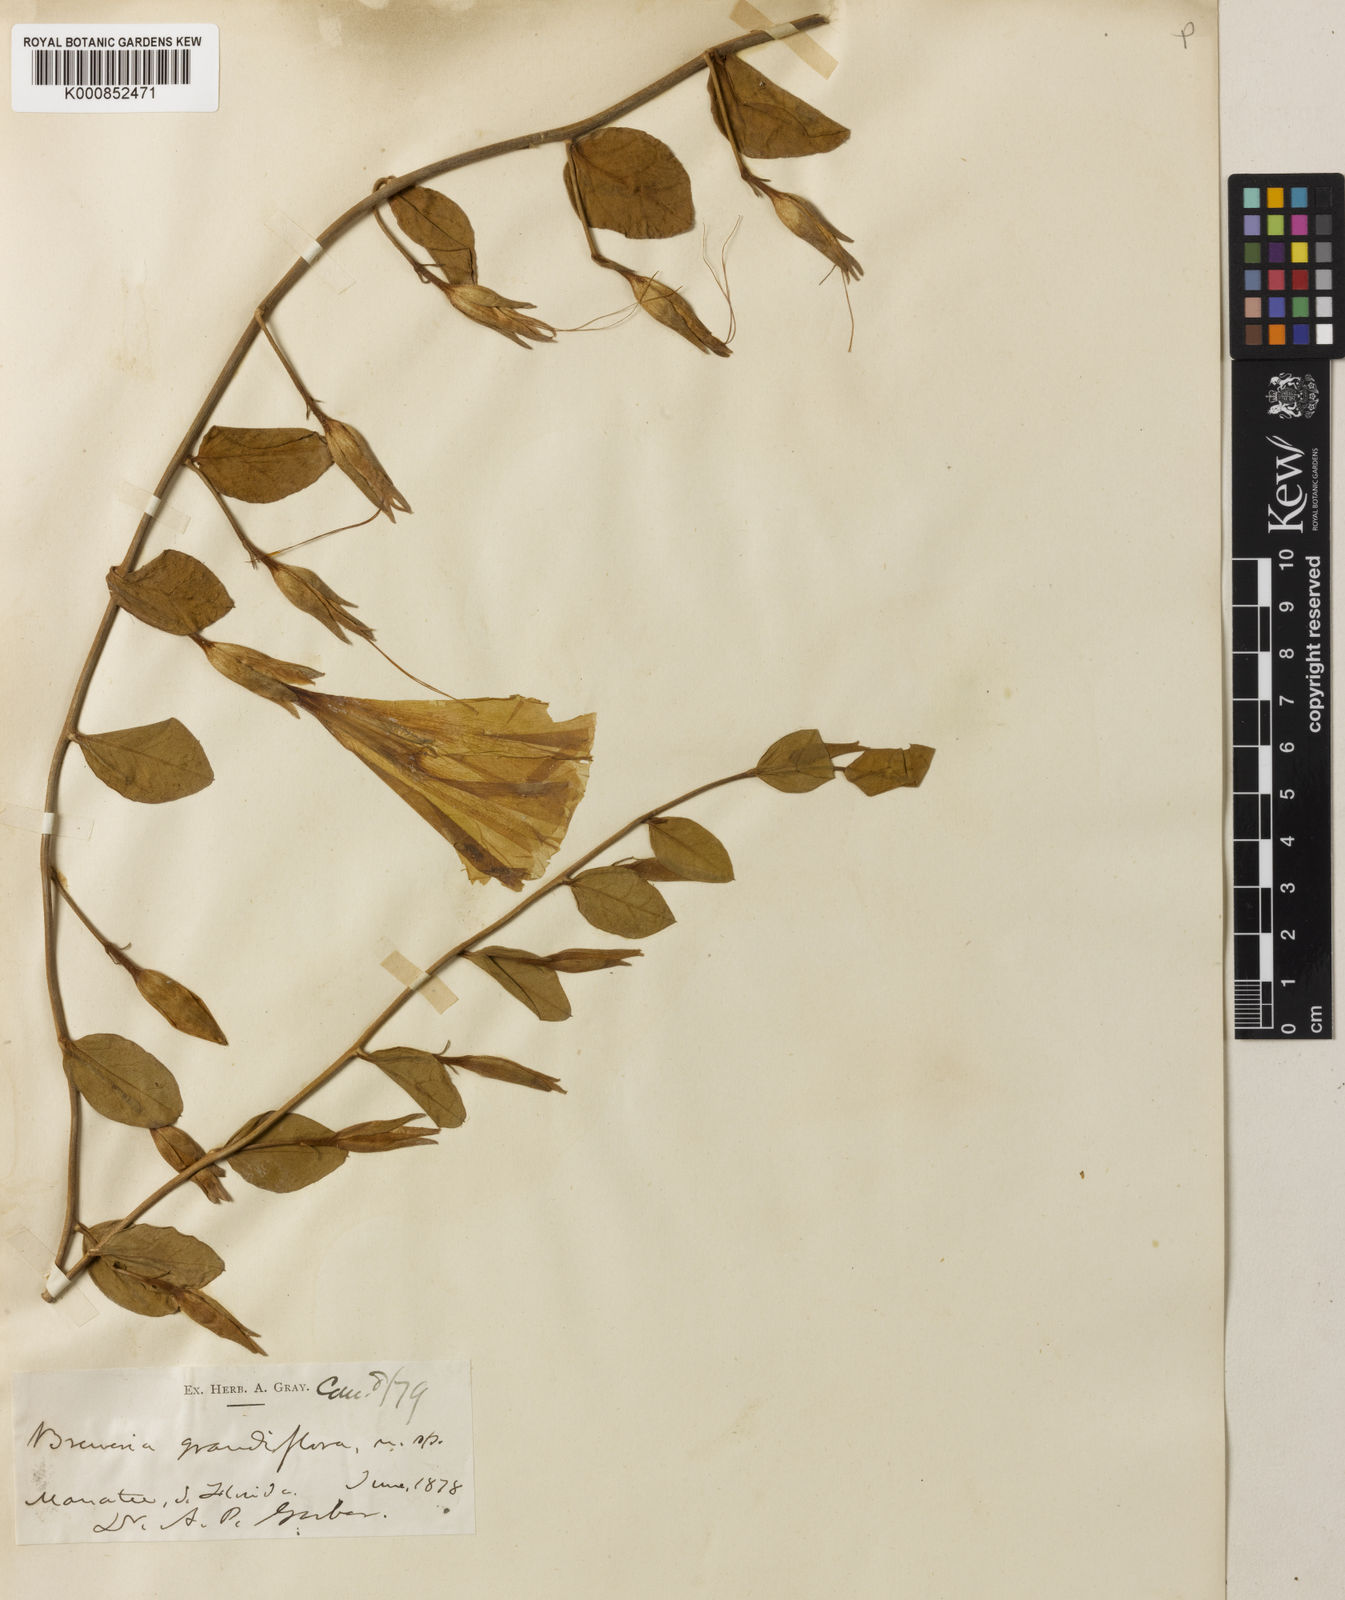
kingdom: Plantae
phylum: Tracheophyta
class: Magnoliopsida
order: Solanales
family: Convolvulaceae
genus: Bonamia
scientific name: Bonamia grandiflora
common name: Florida bonamia
